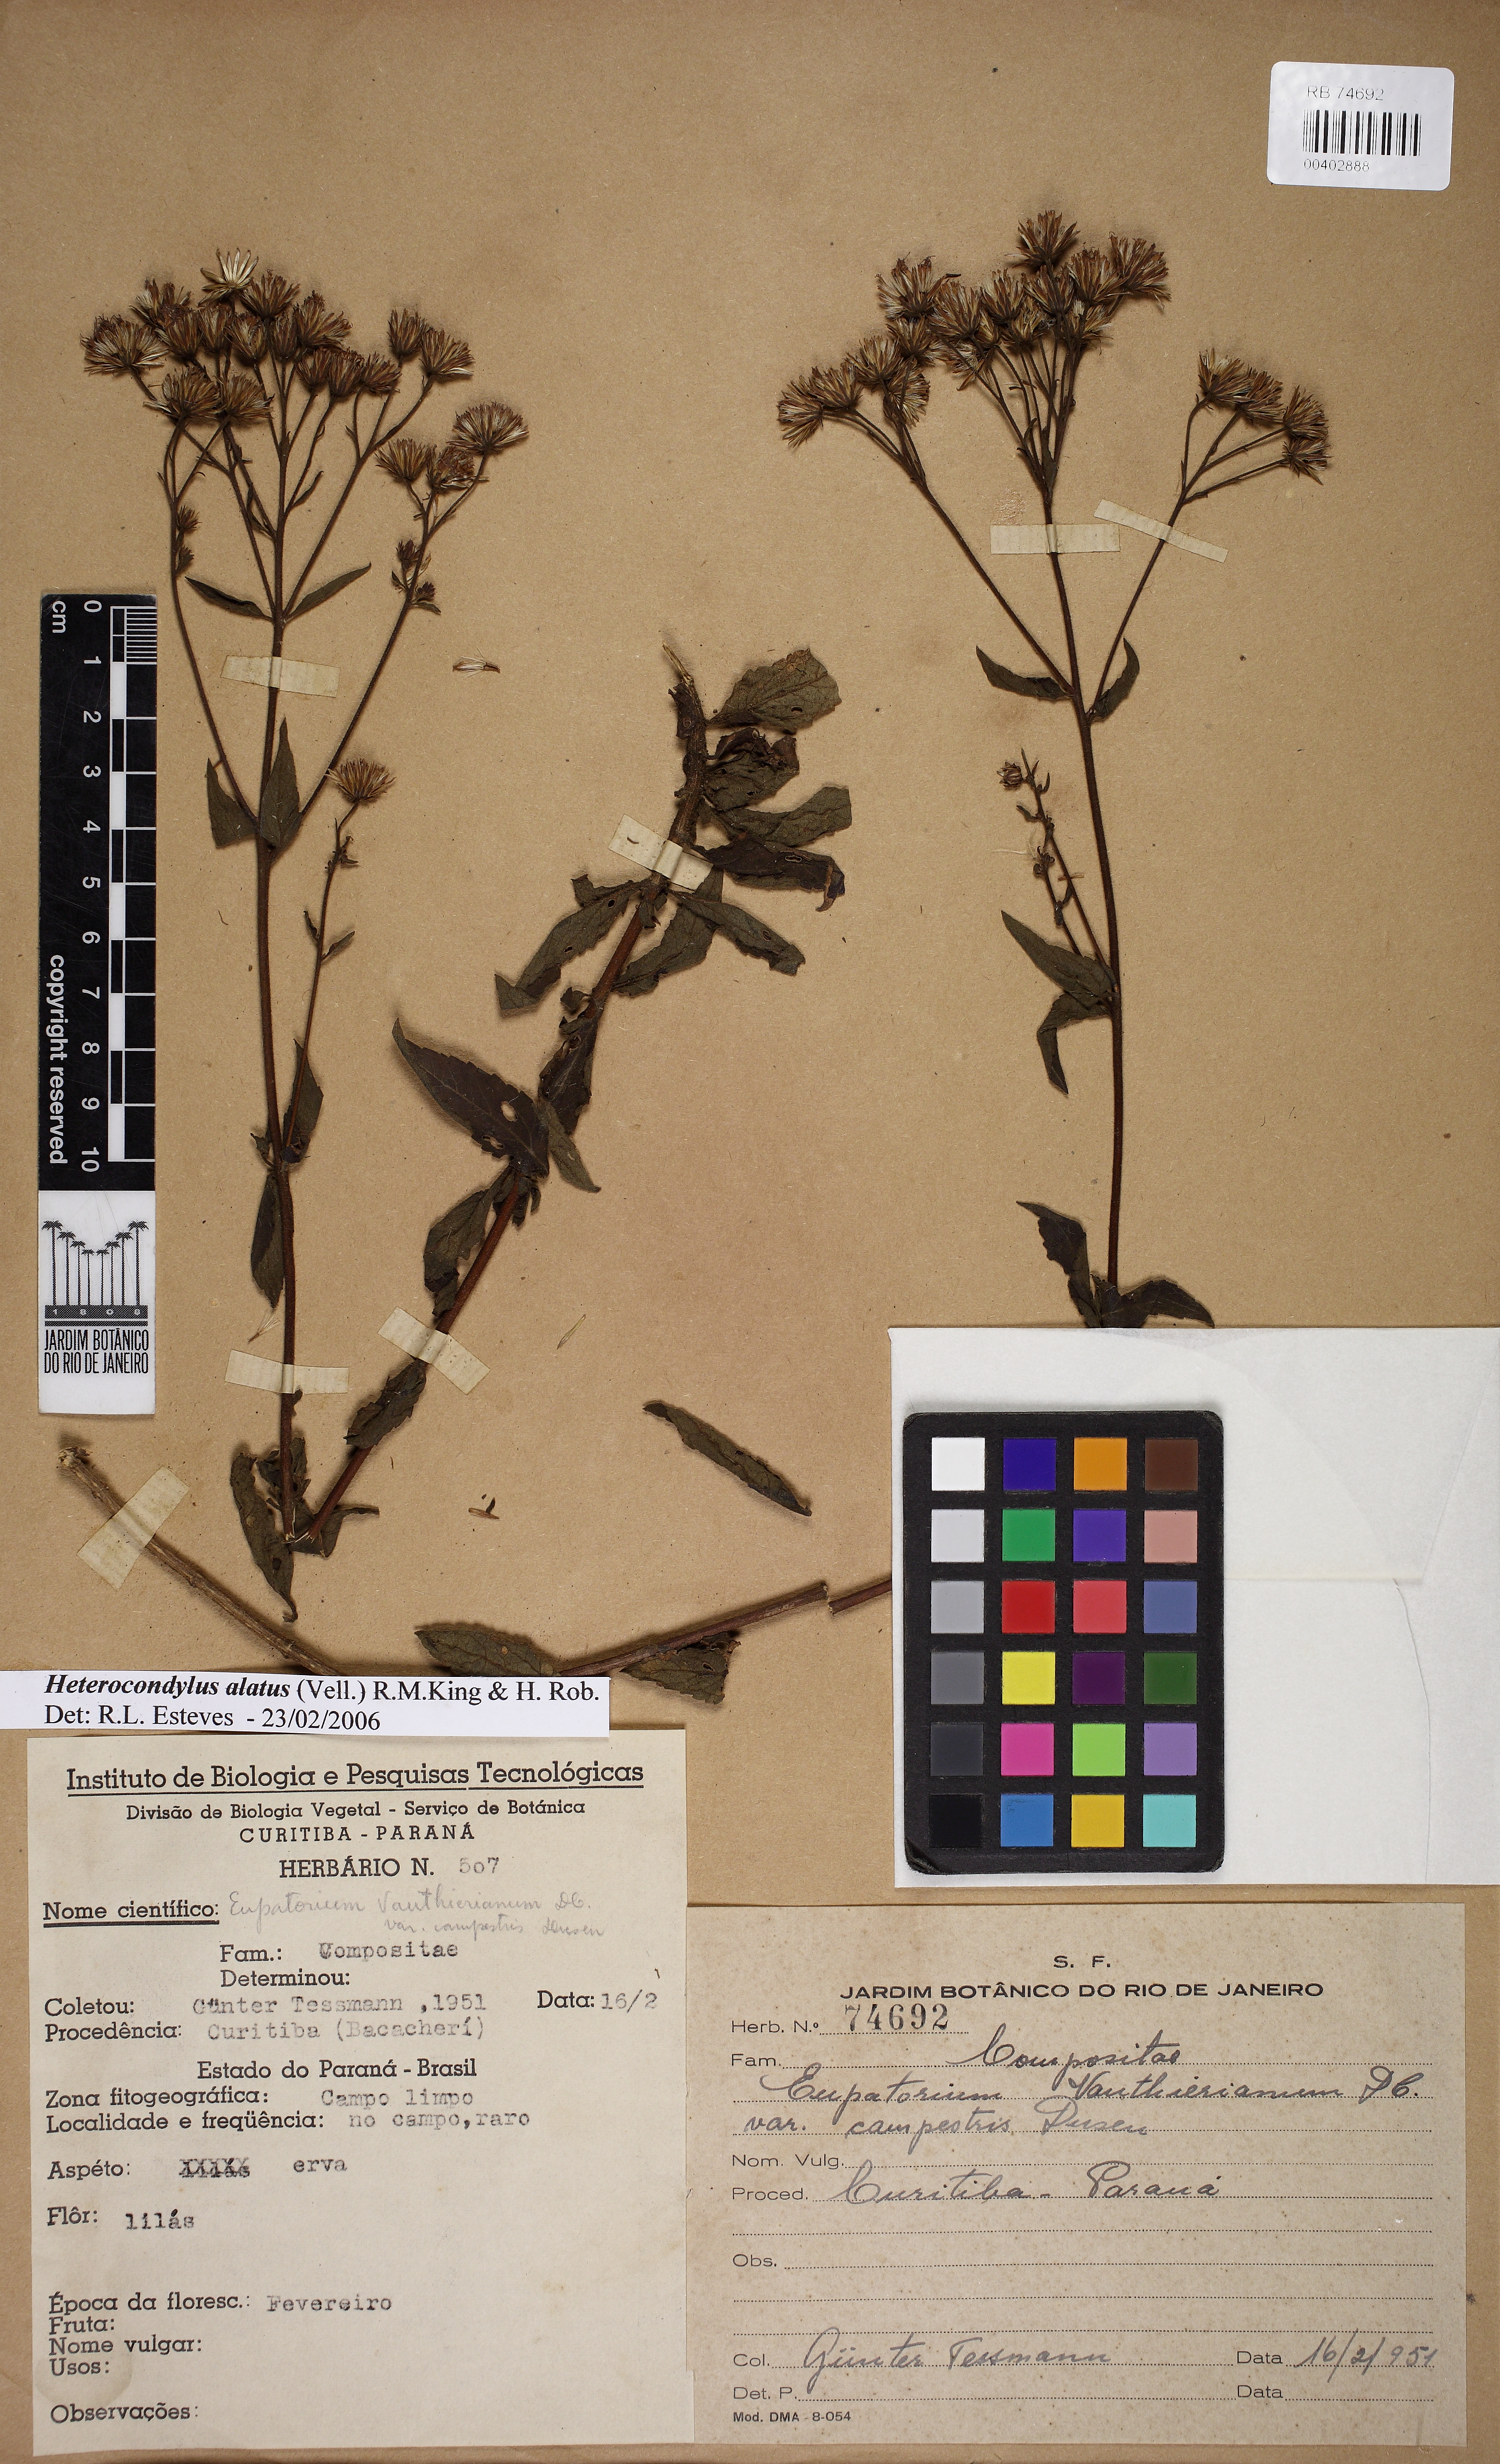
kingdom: Plantae
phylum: Tracheophyta
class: Magnoliopsida
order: Asterales
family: Asteraceae
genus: Heterocondylus
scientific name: Heterocondylus alatus
